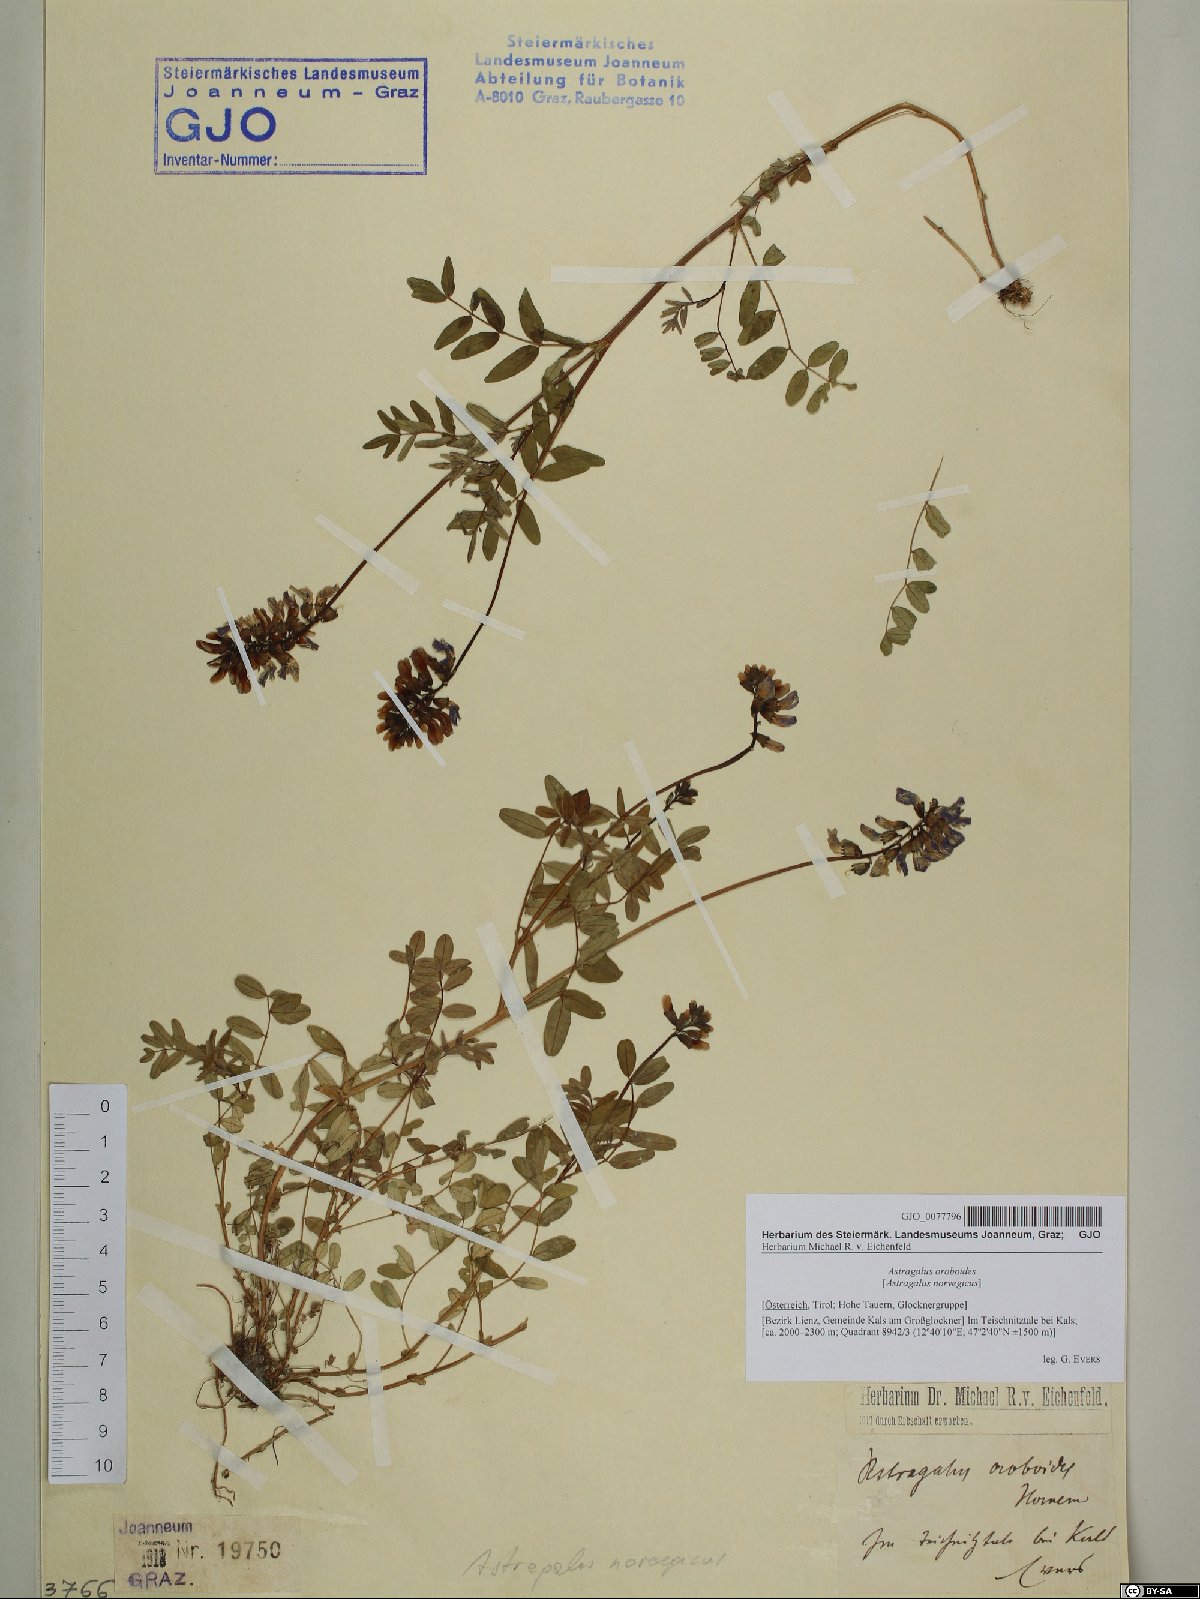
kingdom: Plantae
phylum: Tracheophyta
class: Magnoliopsida
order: Fabales
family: Fabaceae
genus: Astragalus
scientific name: Astragalus norvegicus
